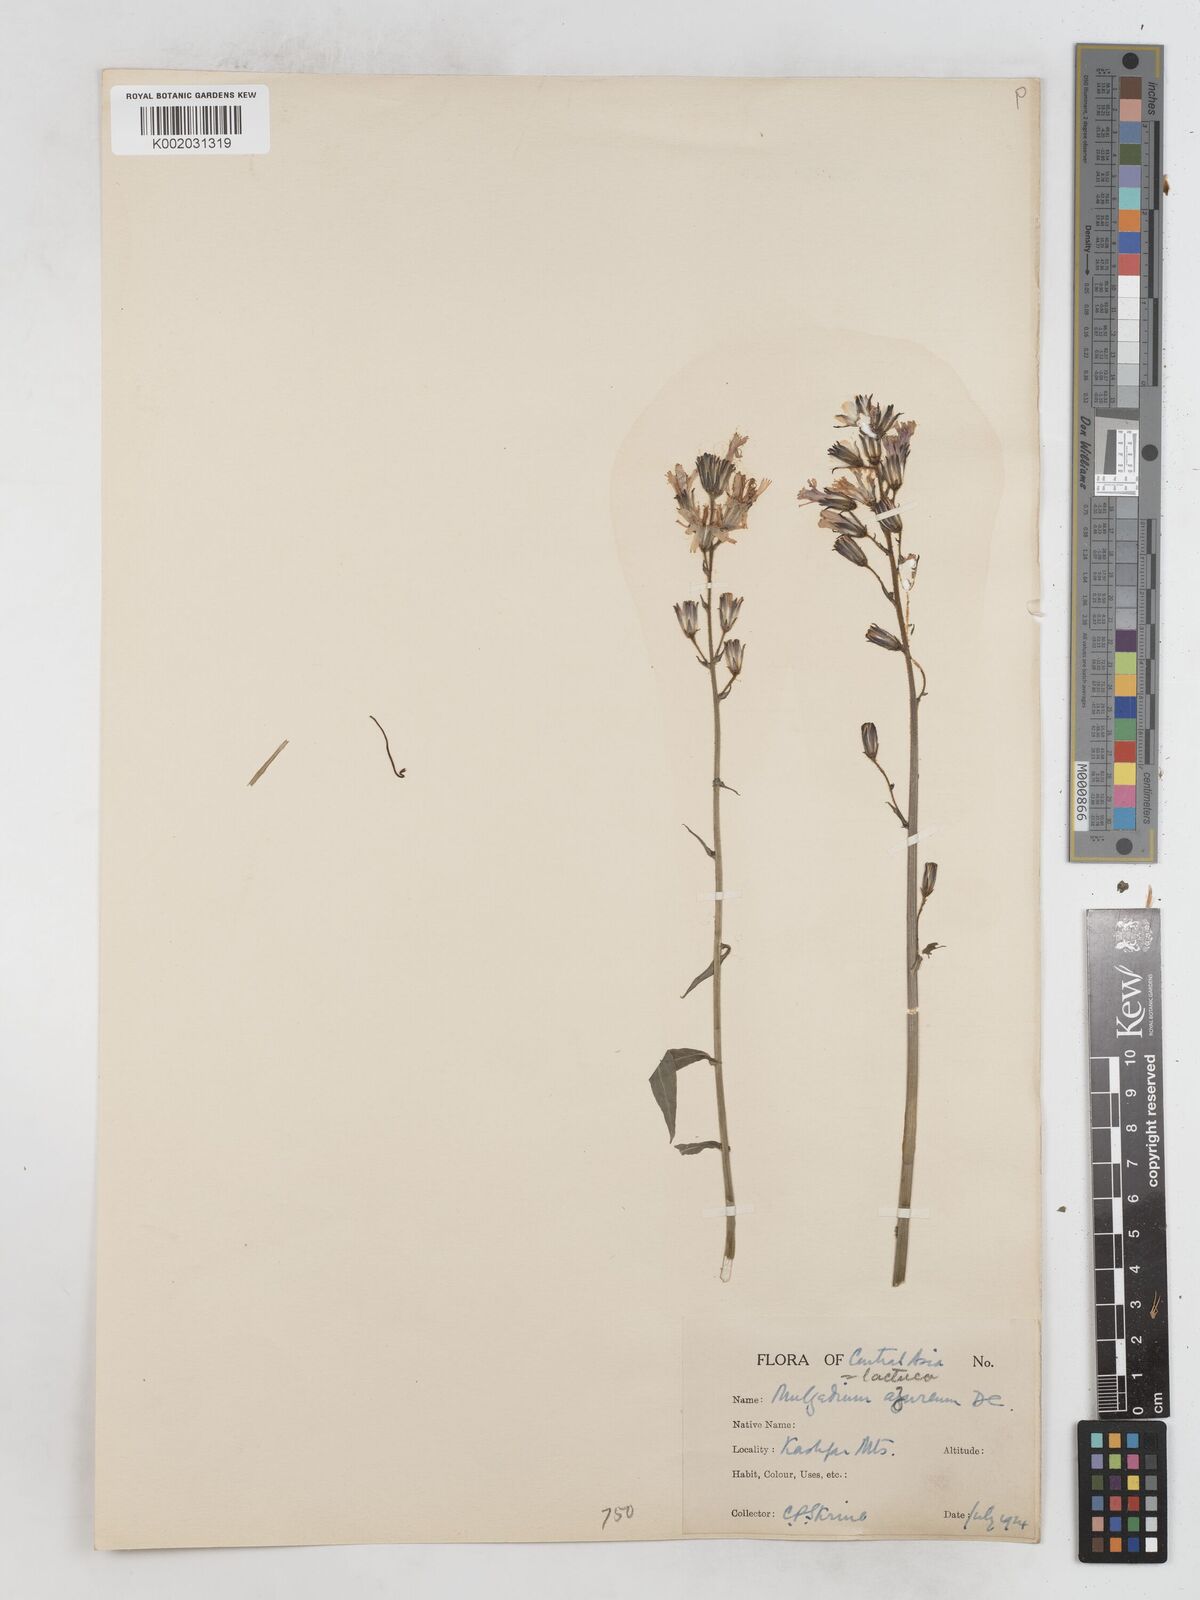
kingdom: Plantae
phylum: Tracheophyta
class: Magnoliopsida
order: Asterales
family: Asteraceae
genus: Cicerbita
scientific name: Cicerbita azurea
